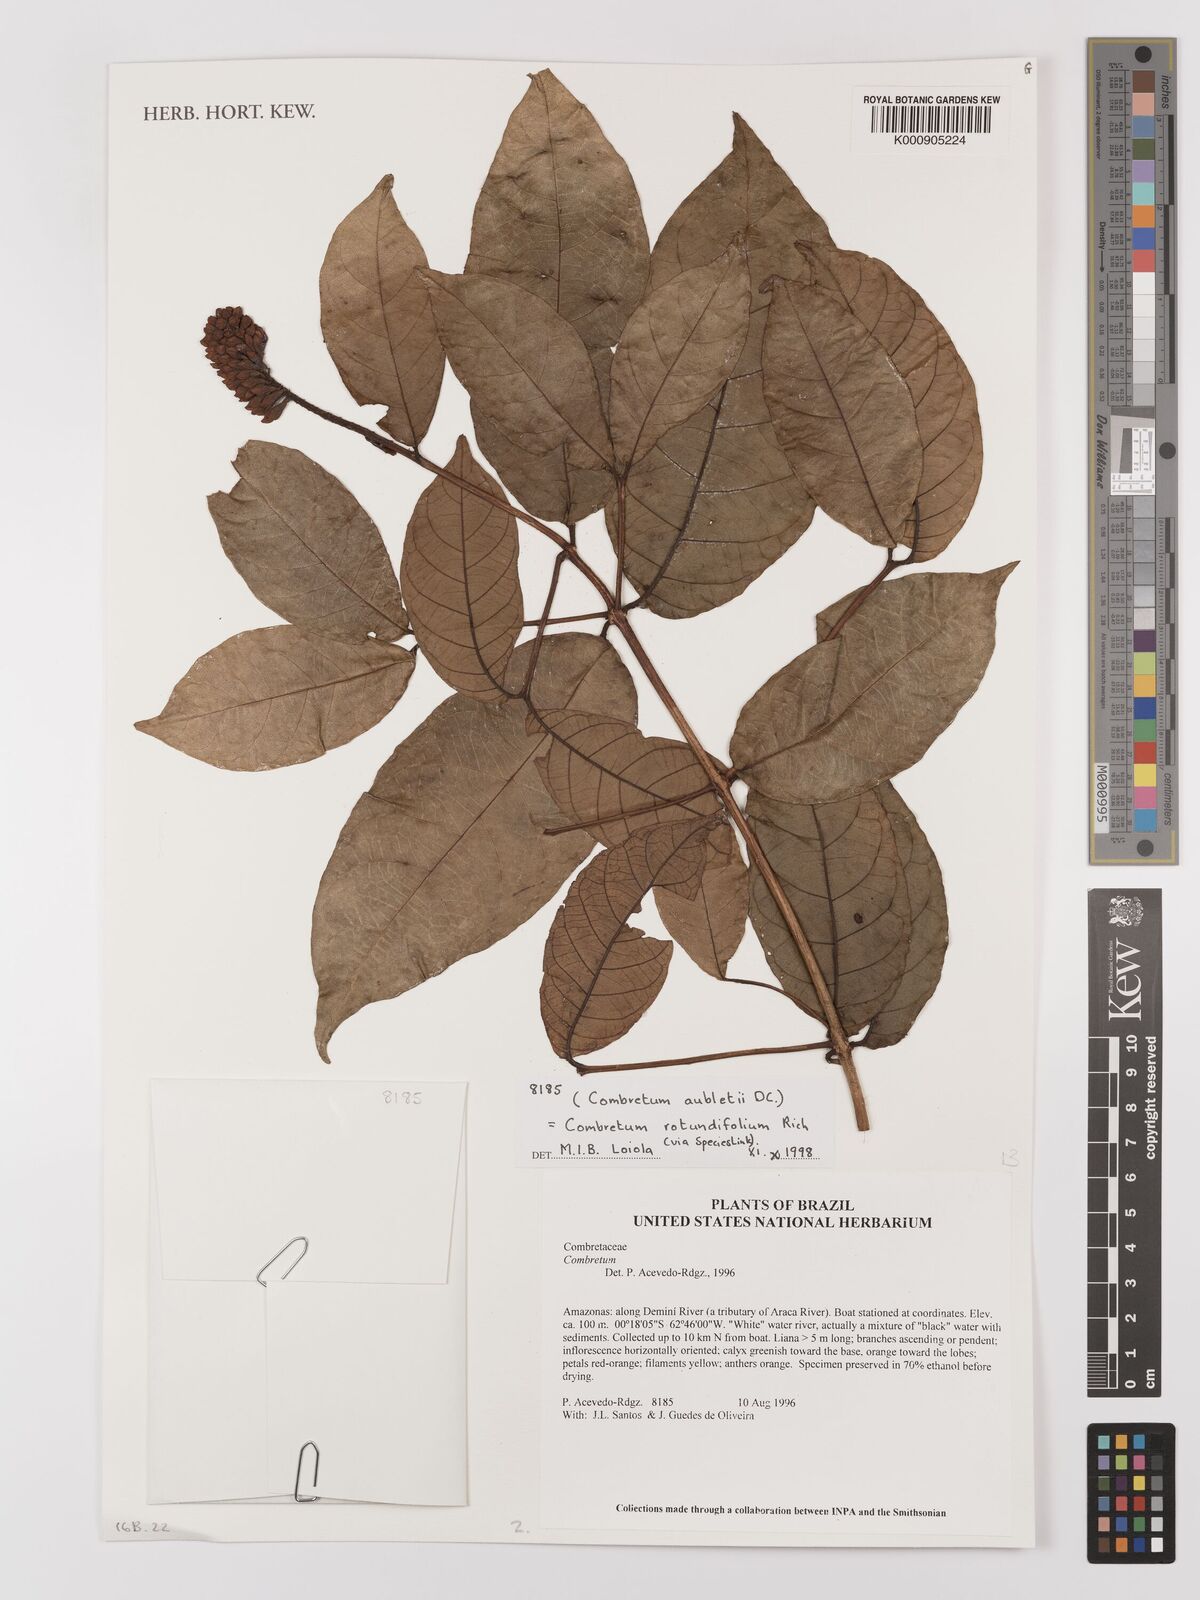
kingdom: Plantae
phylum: Tracheophyta
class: Magnoliopsida
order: Myrtales
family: Combretaceae
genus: Combretum
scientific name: Combretum rotundifolium
